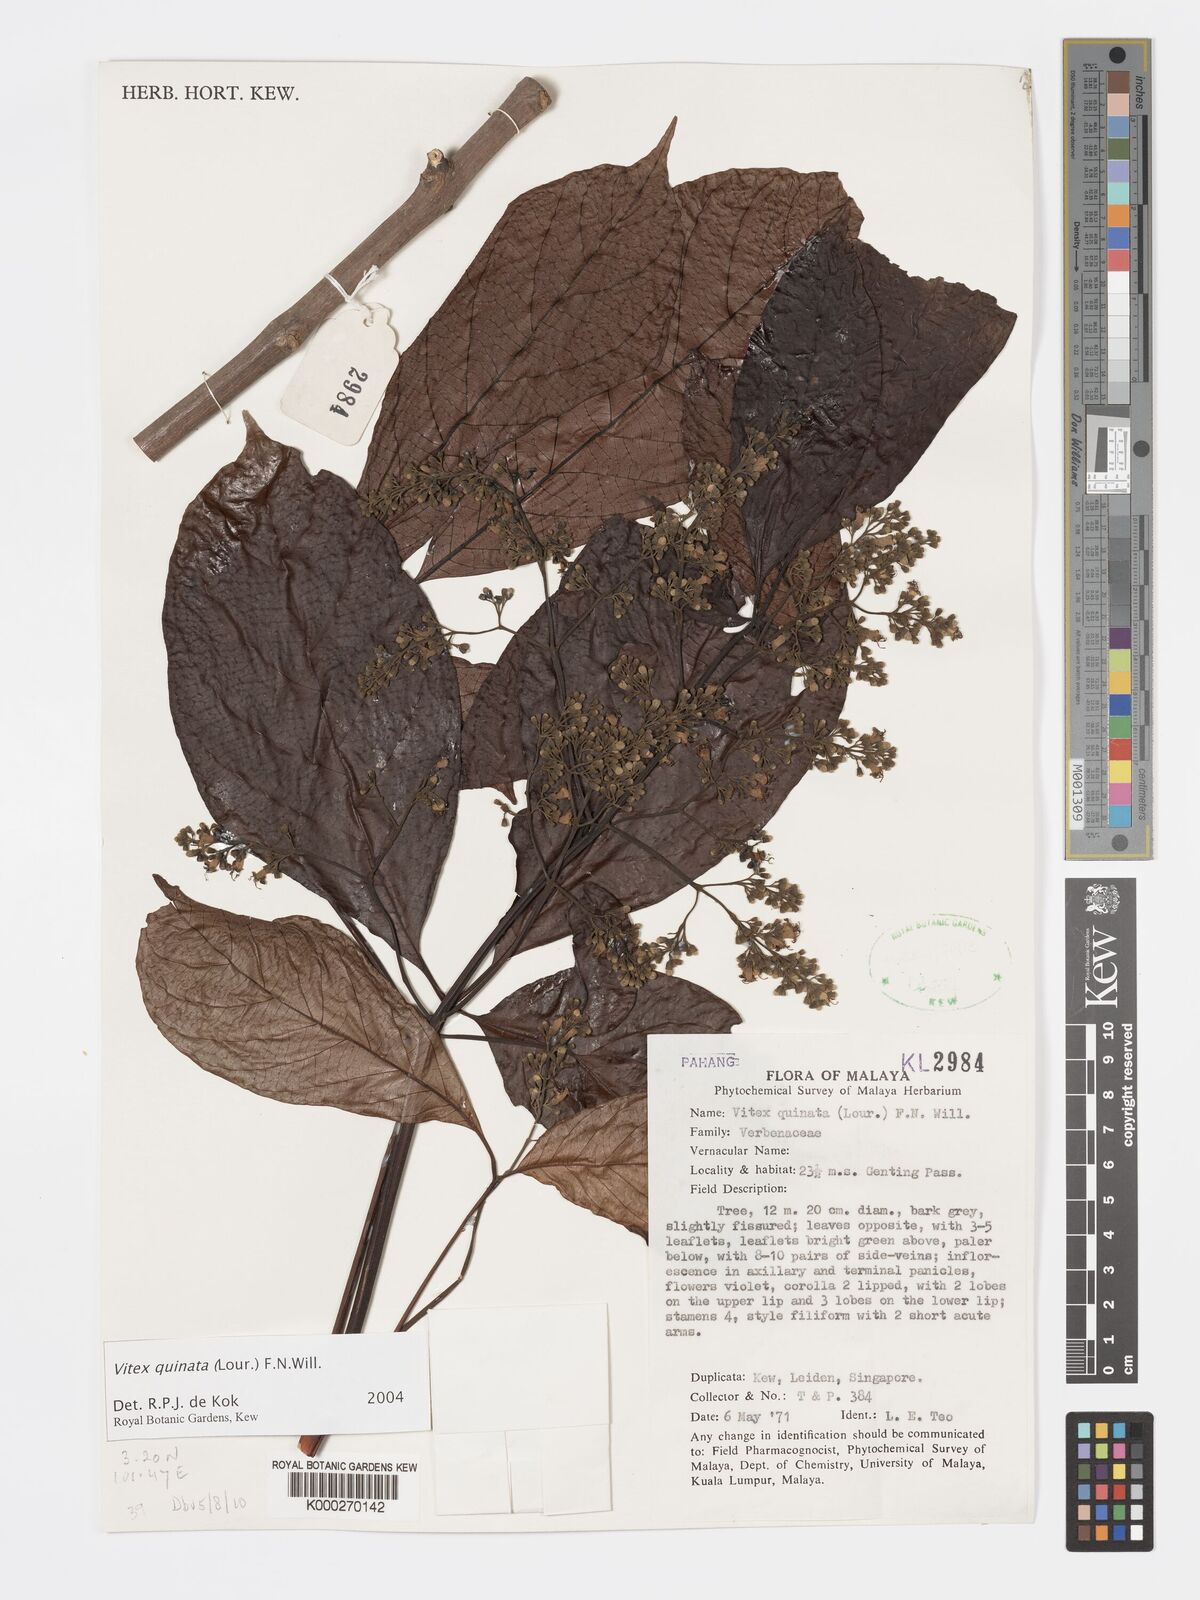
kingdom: Plantae
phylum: Tracheophyta
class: Magnoliopsida
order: Lamiales
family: Lamiaceae
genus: Vitex
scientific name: Vitex quinata
